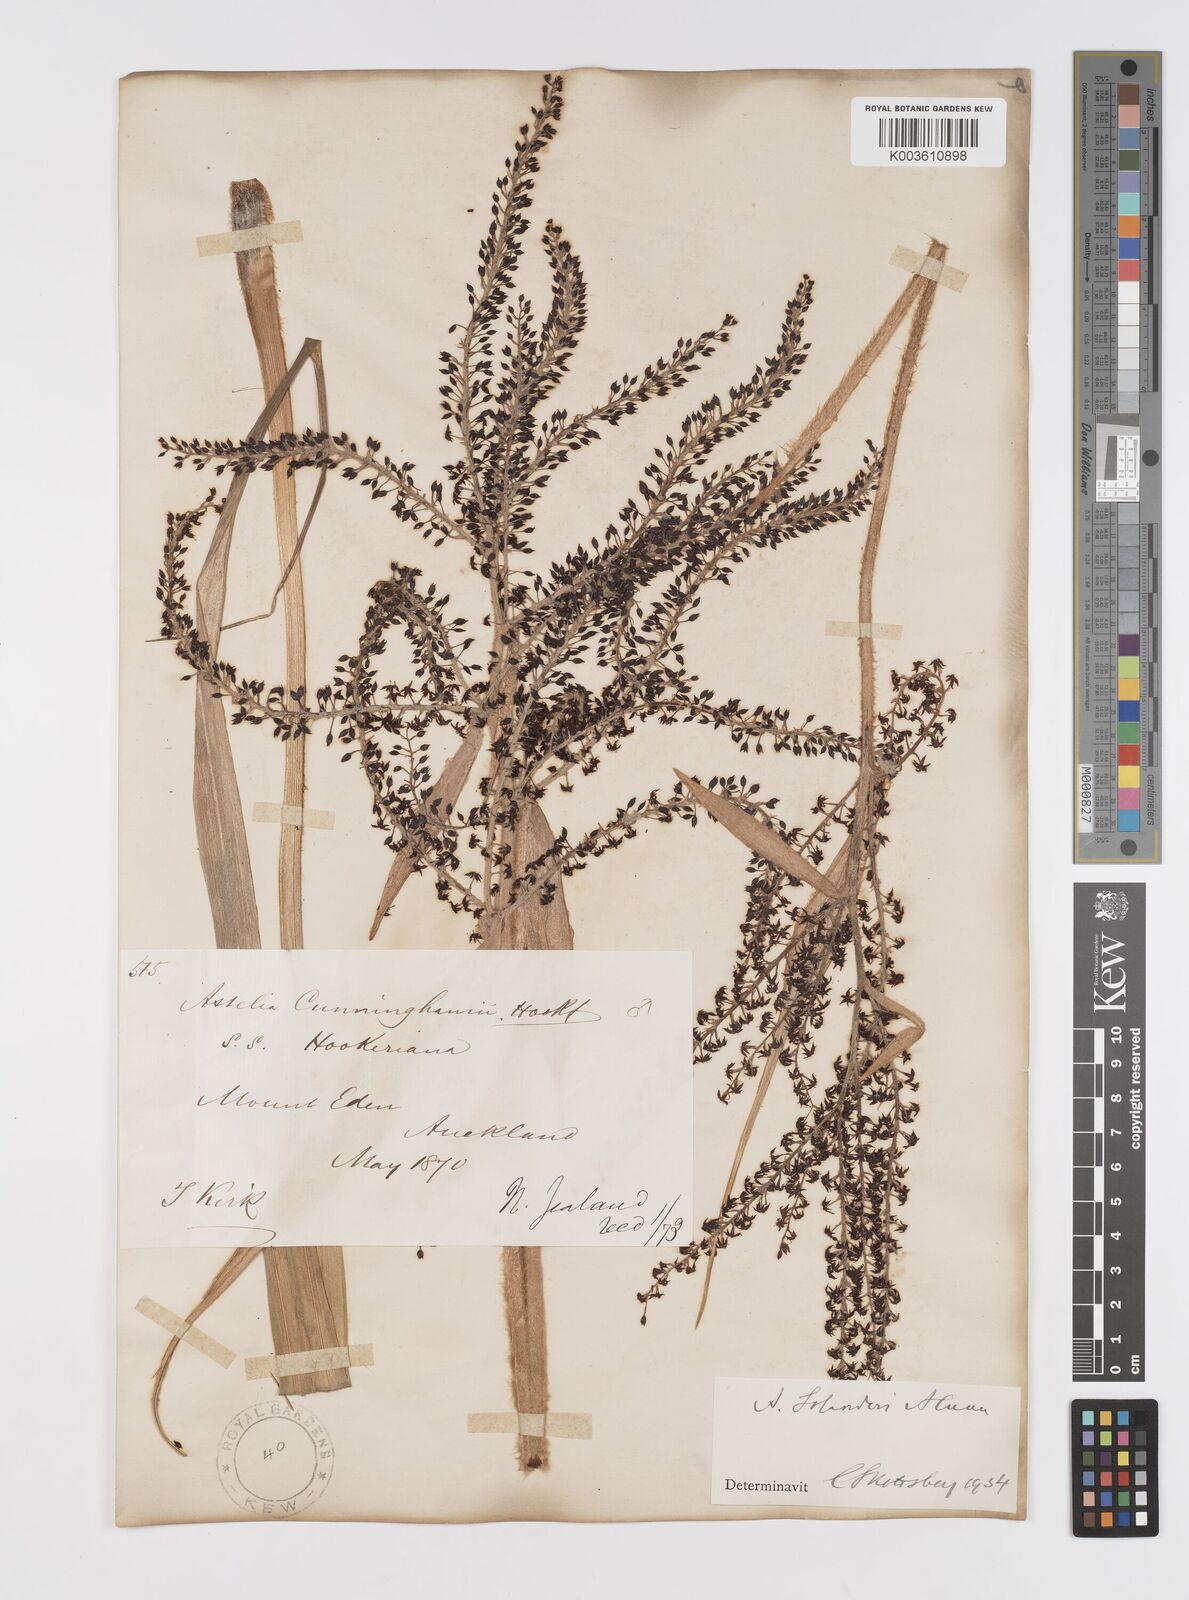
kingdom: Plantae
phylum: Tracheophyta
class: Liliopsida
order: Asparagales
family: Asteliaceae
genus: Astelia
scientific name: Astelia solandri
